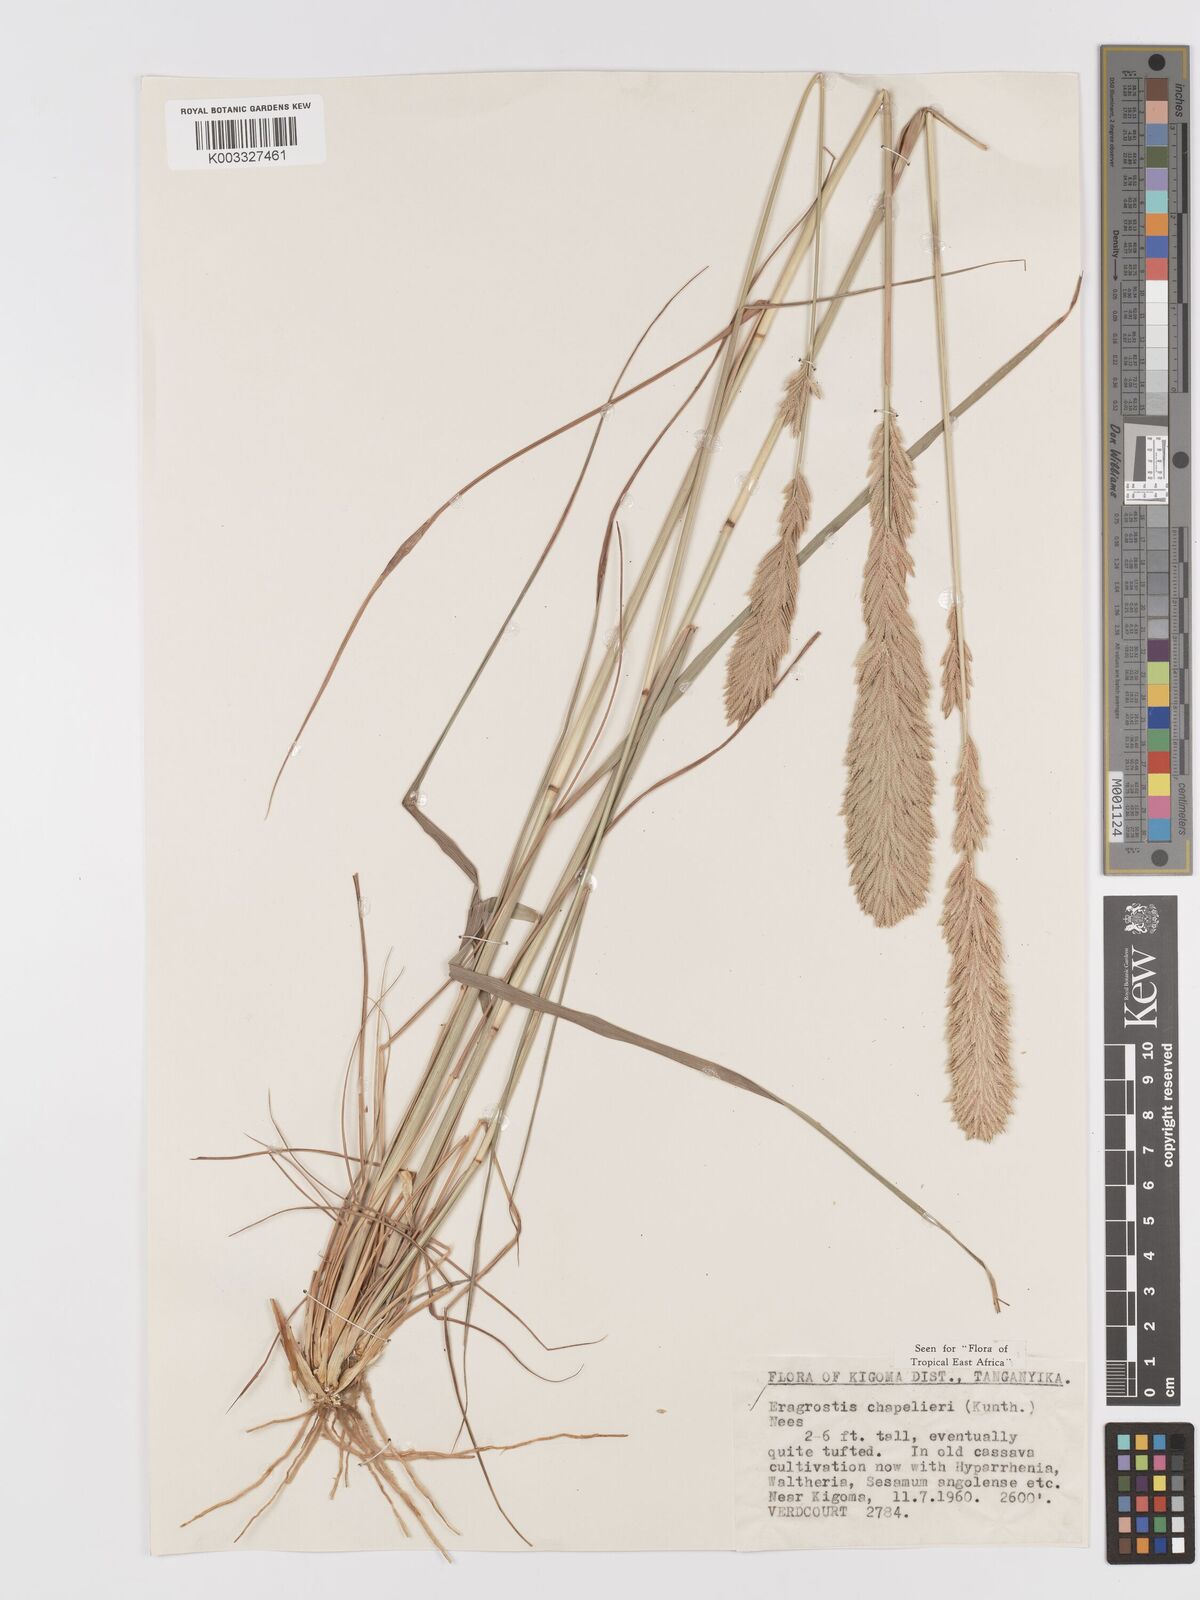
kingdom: Plantae
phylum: Tracheophyta
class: Liliopsida
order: Poales
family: Poaceae
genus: Eragrostis
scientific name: Eragrostis chapelieri
